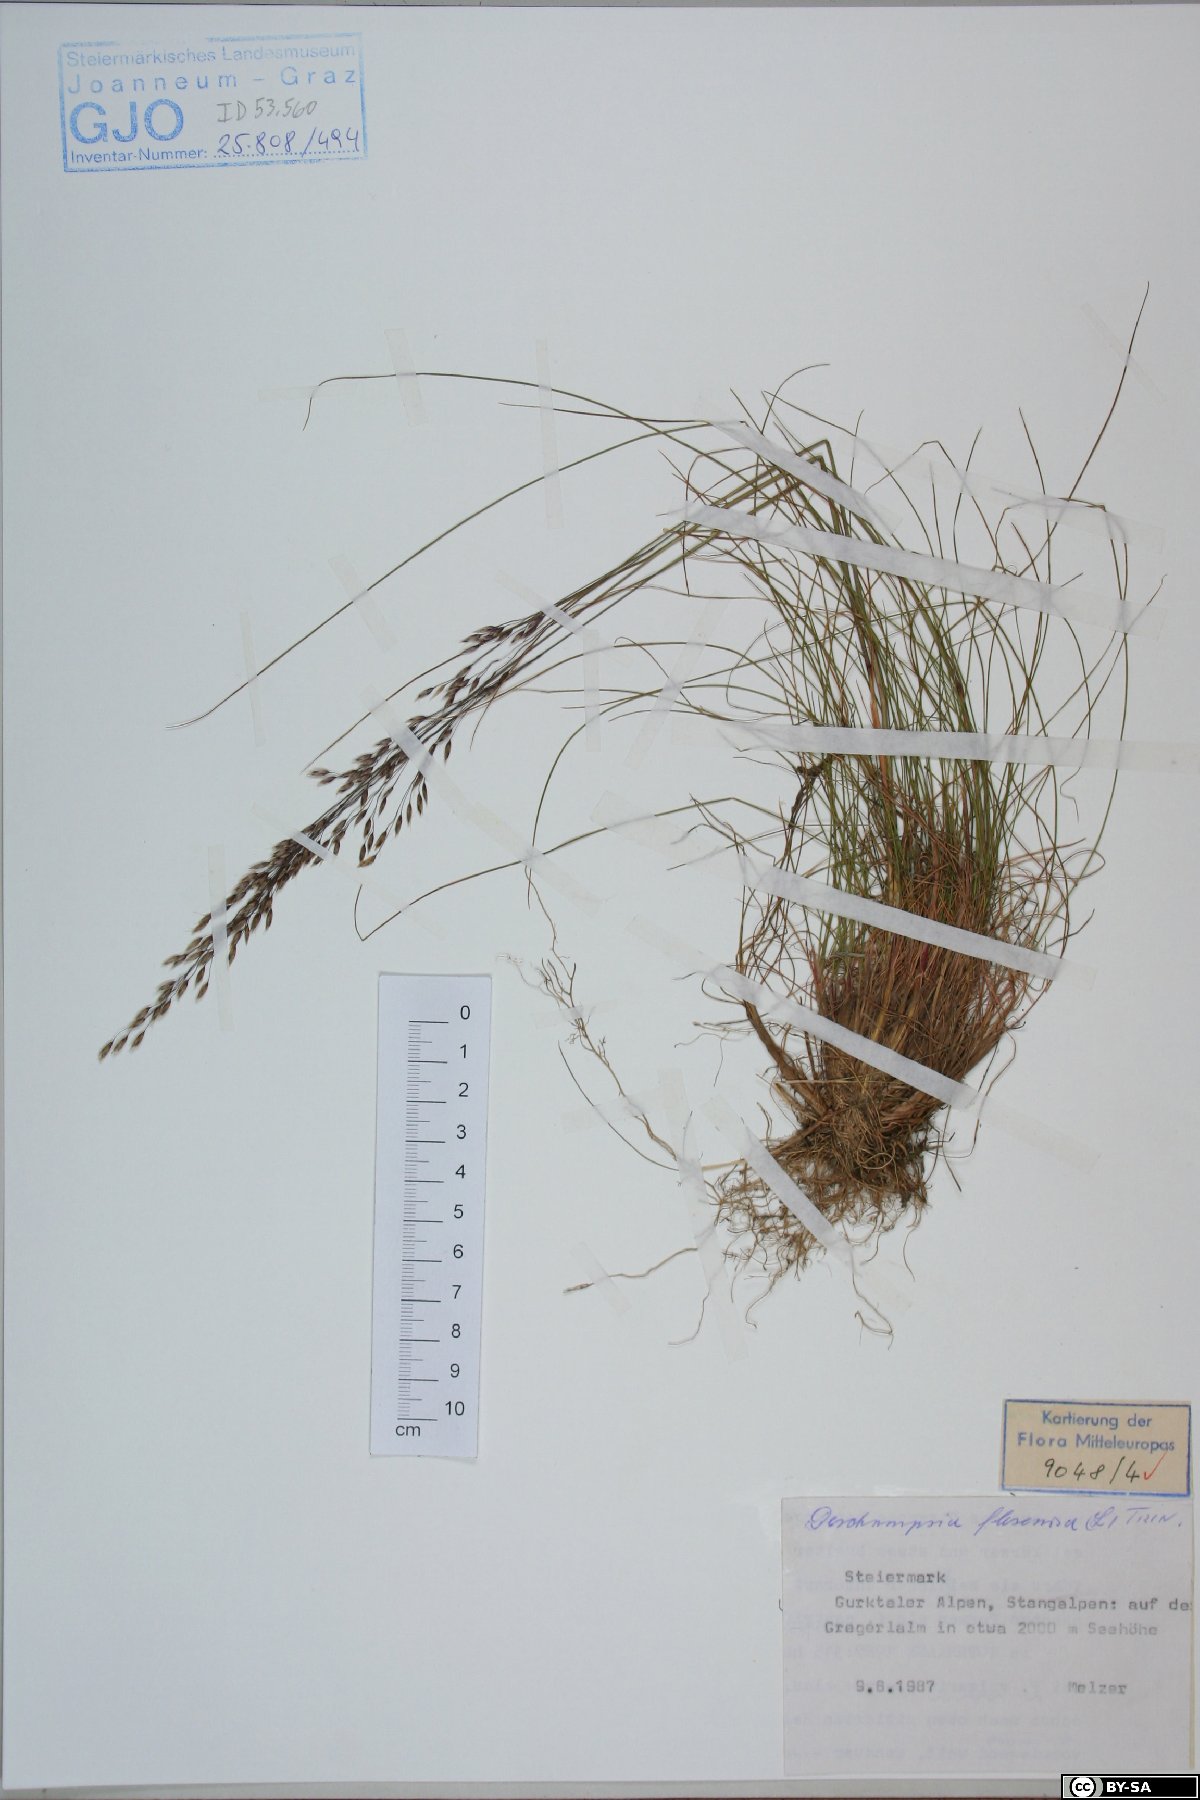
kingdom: Plantae
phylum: Tracheophyta
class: Liliopsida
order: Poales
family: Poaceae
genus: Avenella
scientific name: Avenella flexuosa
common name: Wavy hairgrass
